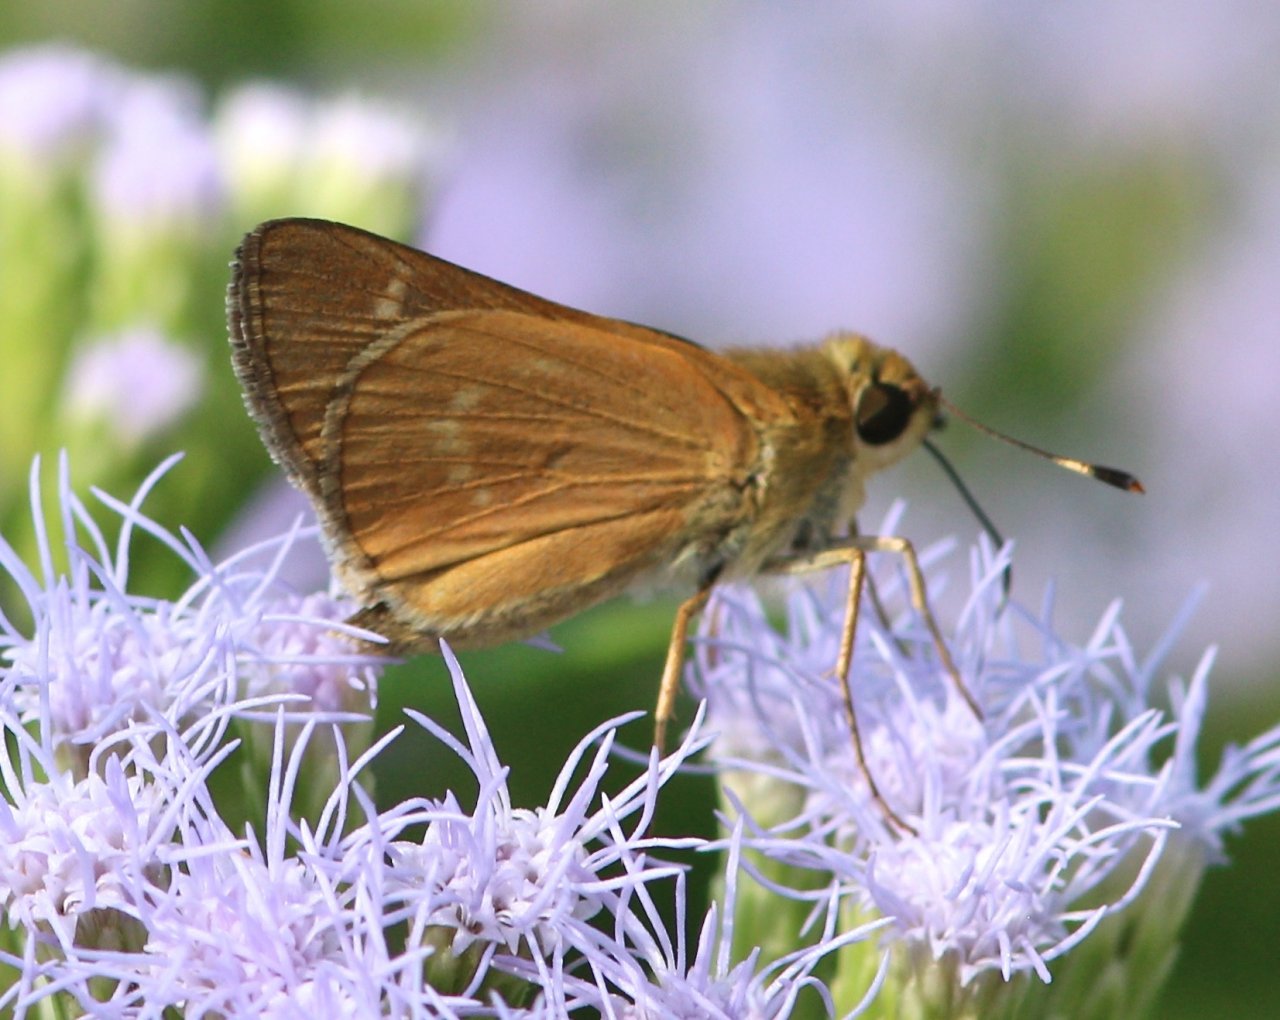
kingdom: Animalia
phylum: Arthropoda
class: Insecta
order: Lepidoptera
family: Hesperiidae
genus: Mellana
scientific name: Mellana eulogius
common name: Common Mellana
